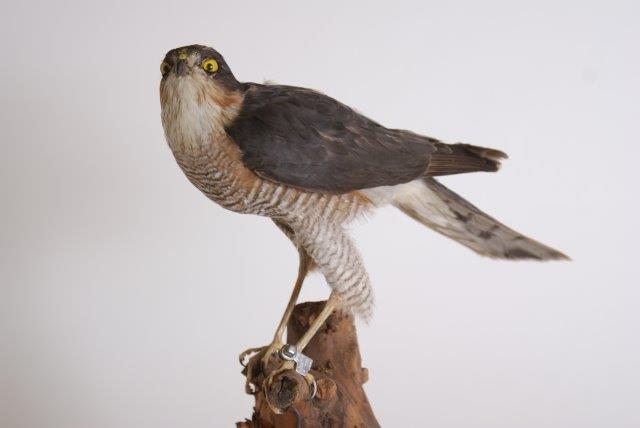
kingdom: Animalia
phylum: Chordata
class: Aves
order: Accipitriformes
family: Accipitridae
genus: Accipiter
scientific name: Accipiter nisus
